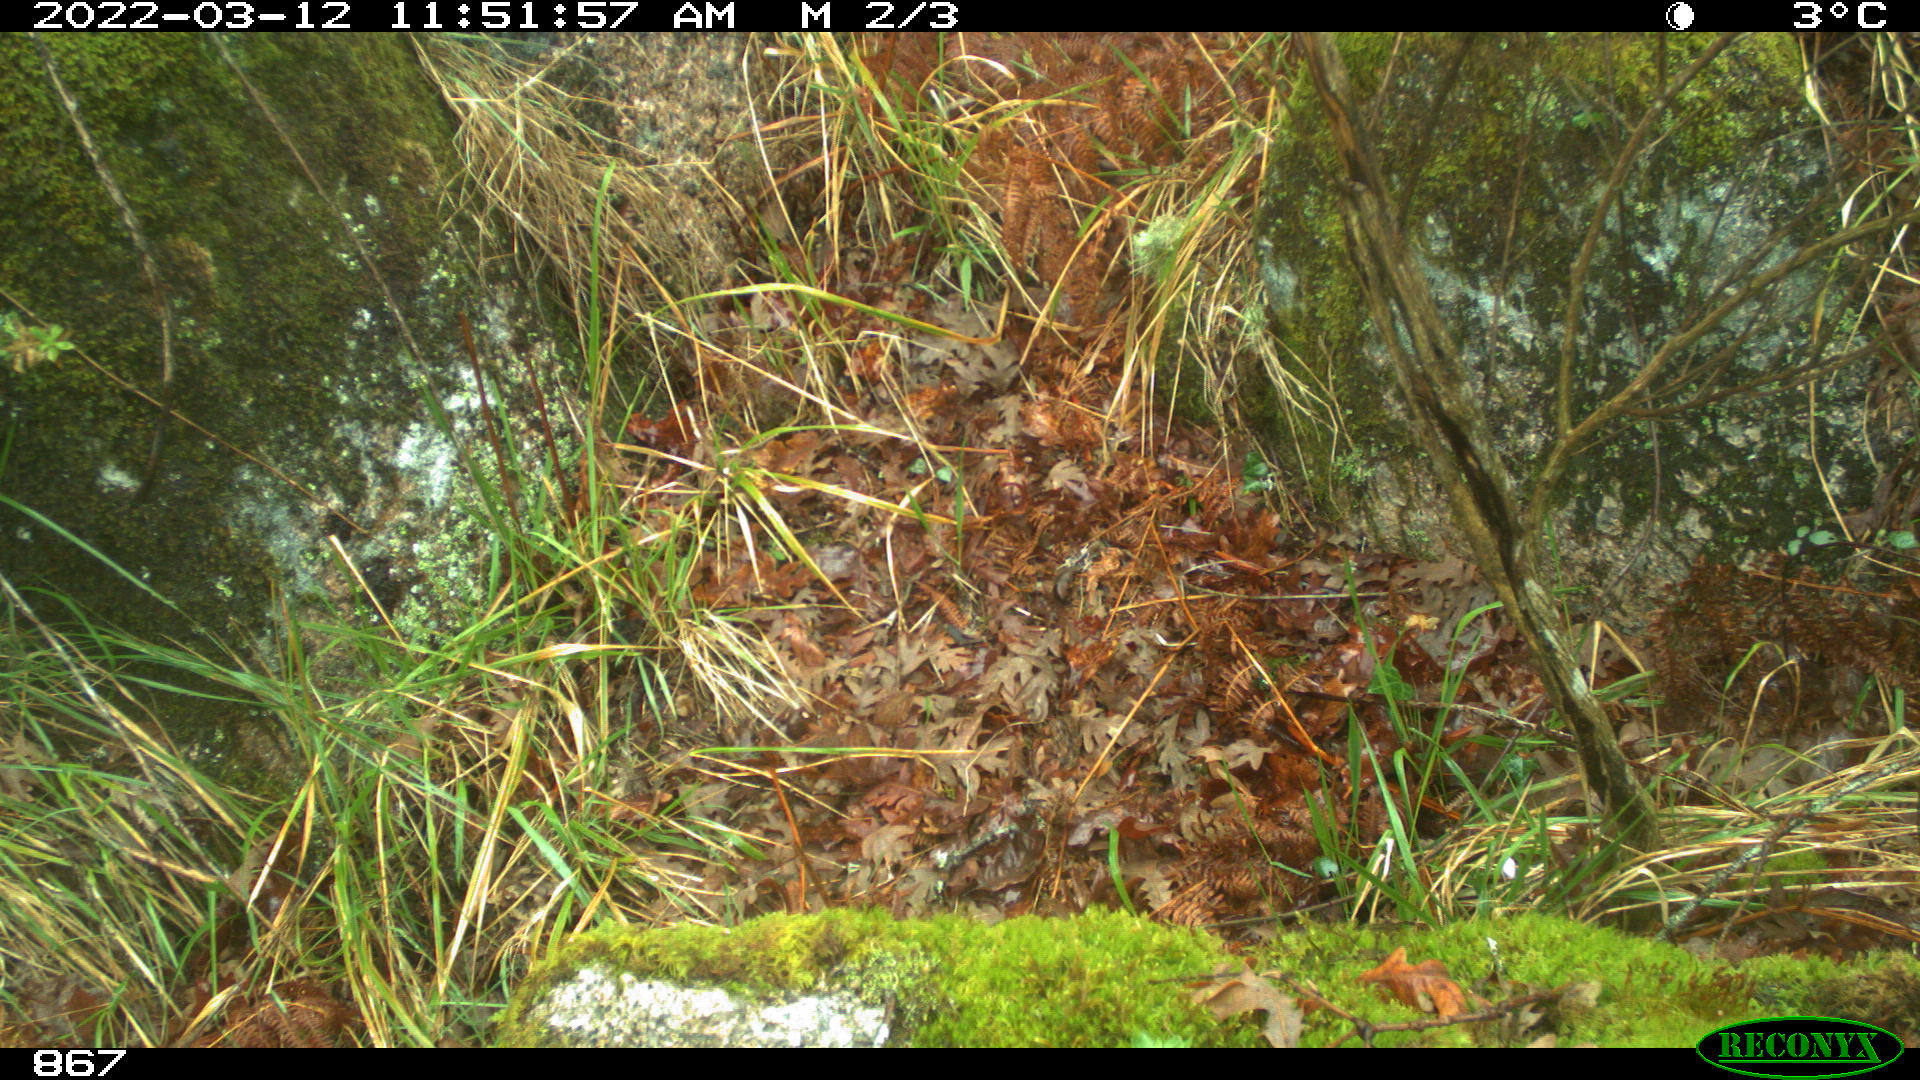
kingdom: Animalia
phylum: Chordata
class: Mammalia
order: Artiodactyla
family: Suidae
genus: Sus
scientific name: Sus scrofa
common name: Wild boar
